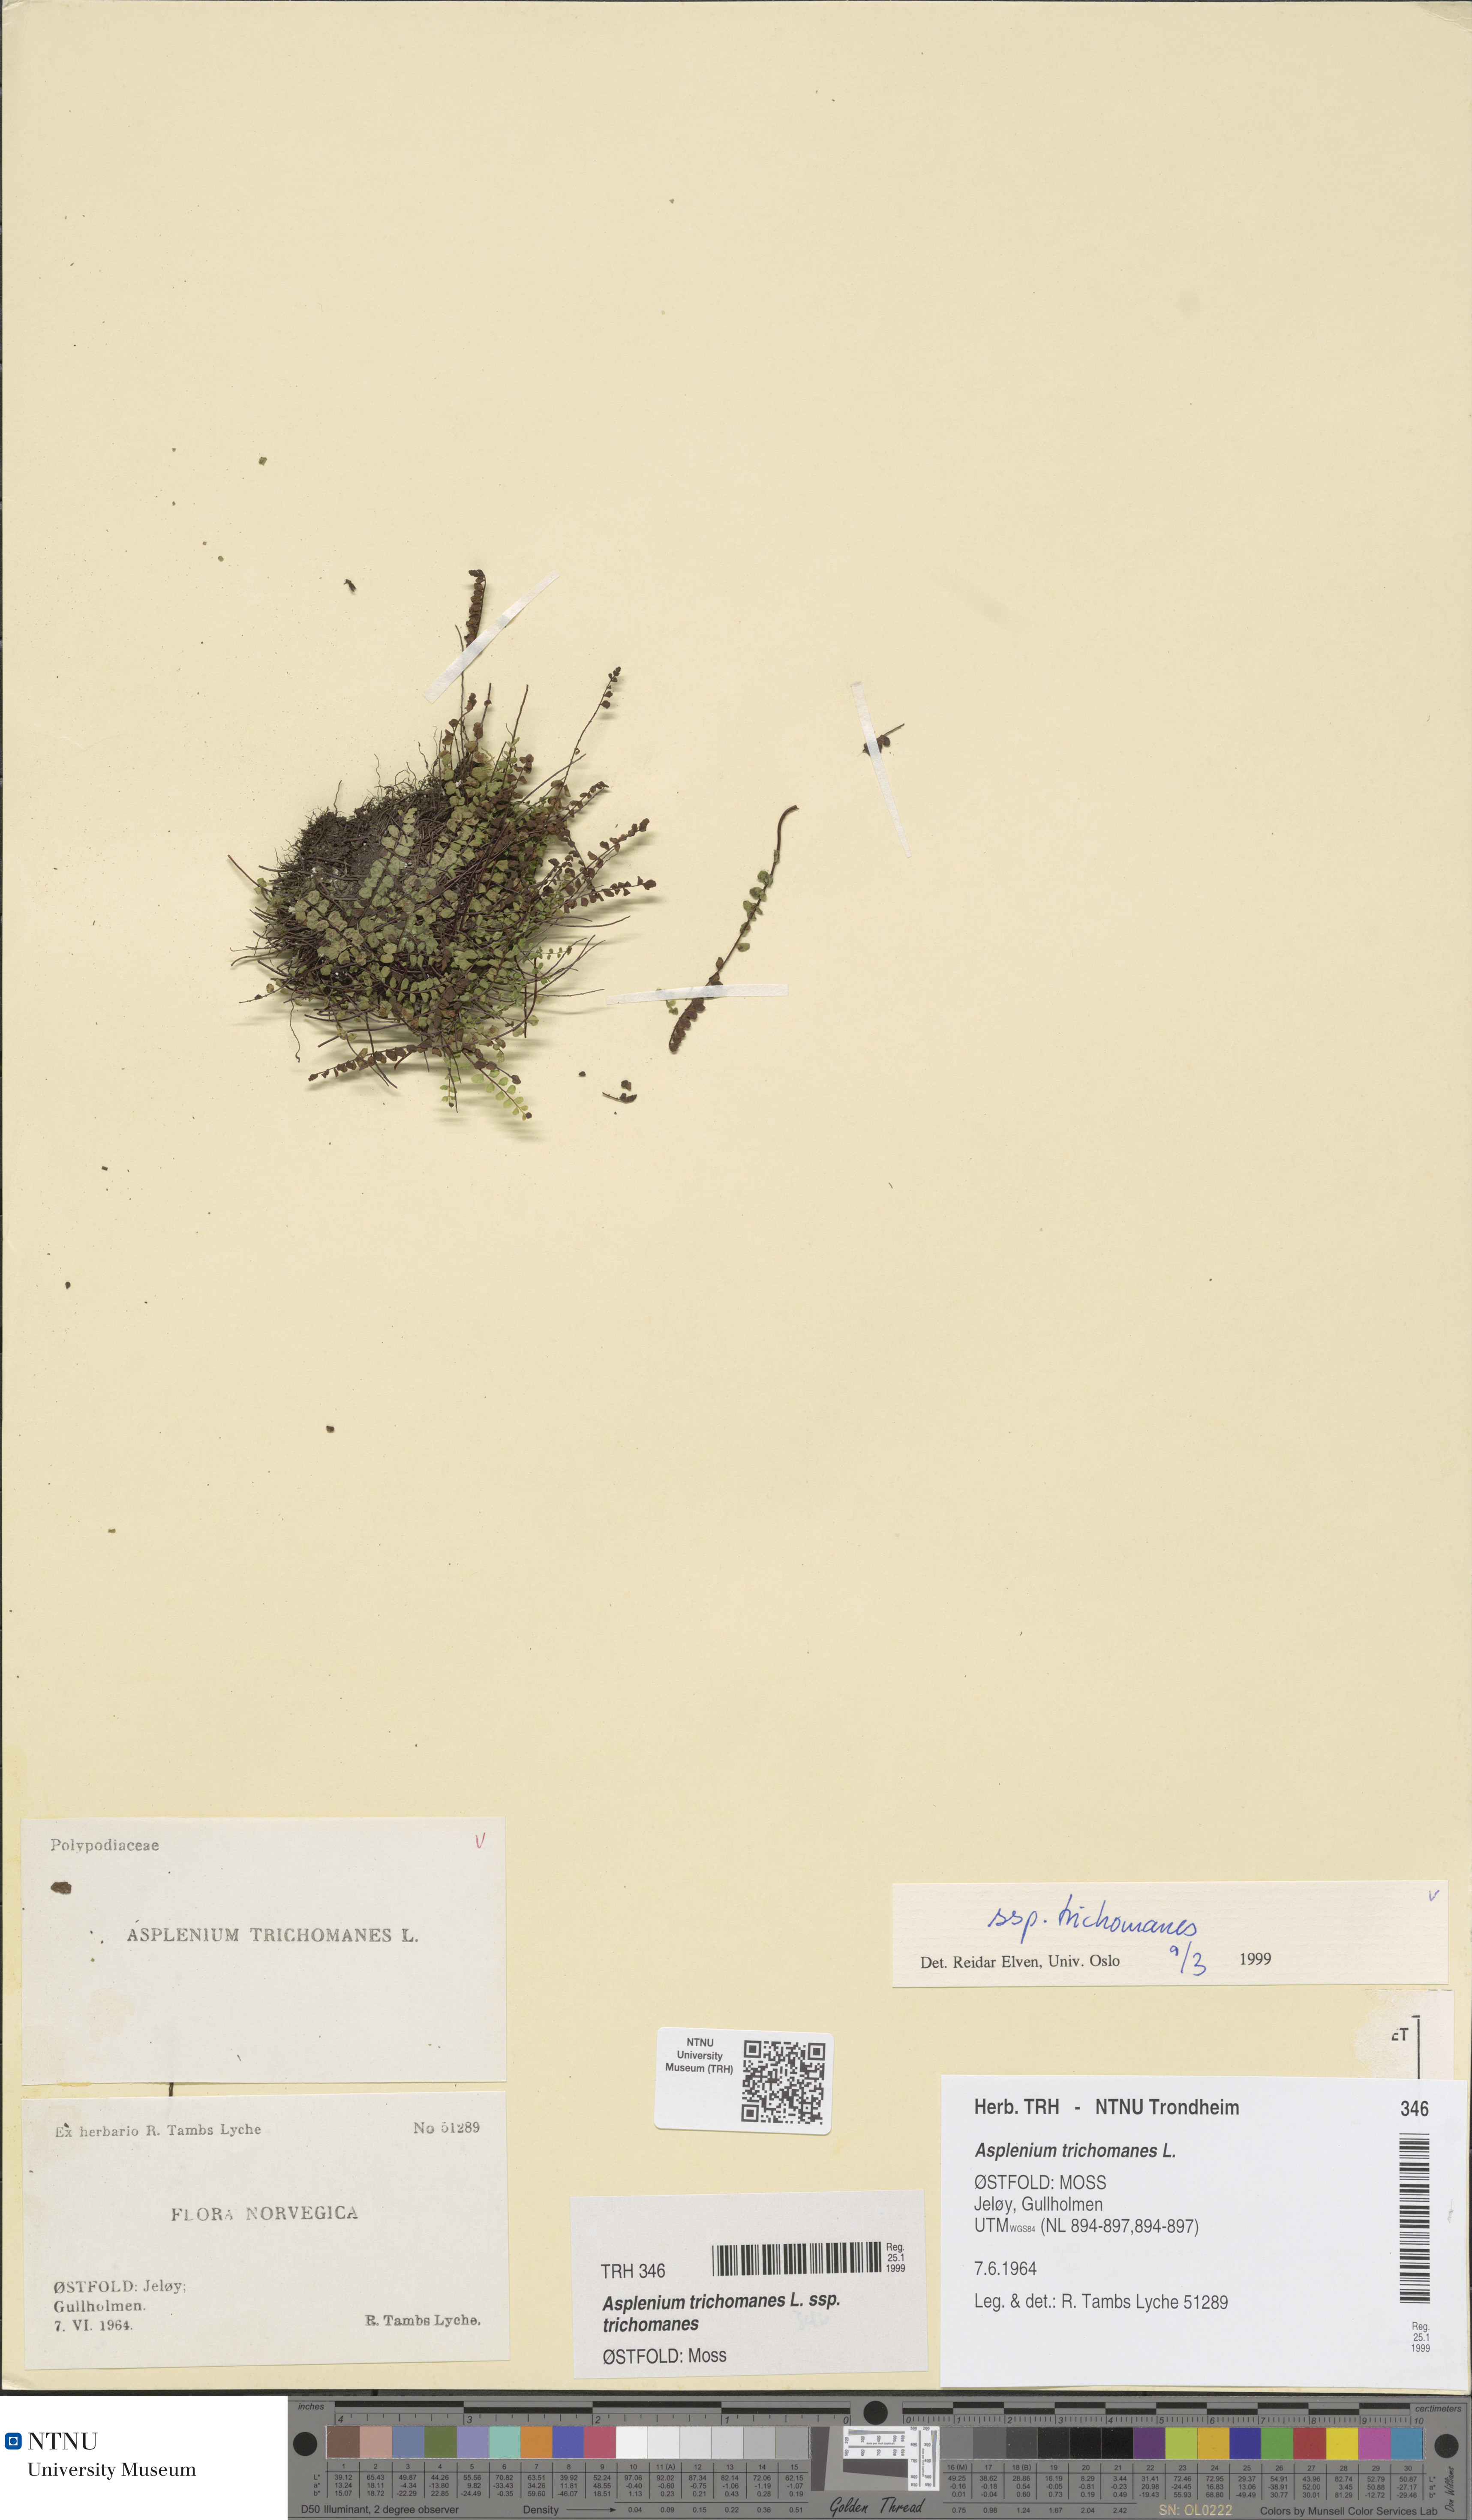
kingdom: Plantae
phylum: Tracheophyta
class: Polypodiopsida
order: Polypodiales
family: Aspleniaceae
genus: Asplenium
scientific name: Asplenium trichomanes
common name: Maidenhair spleenwort
